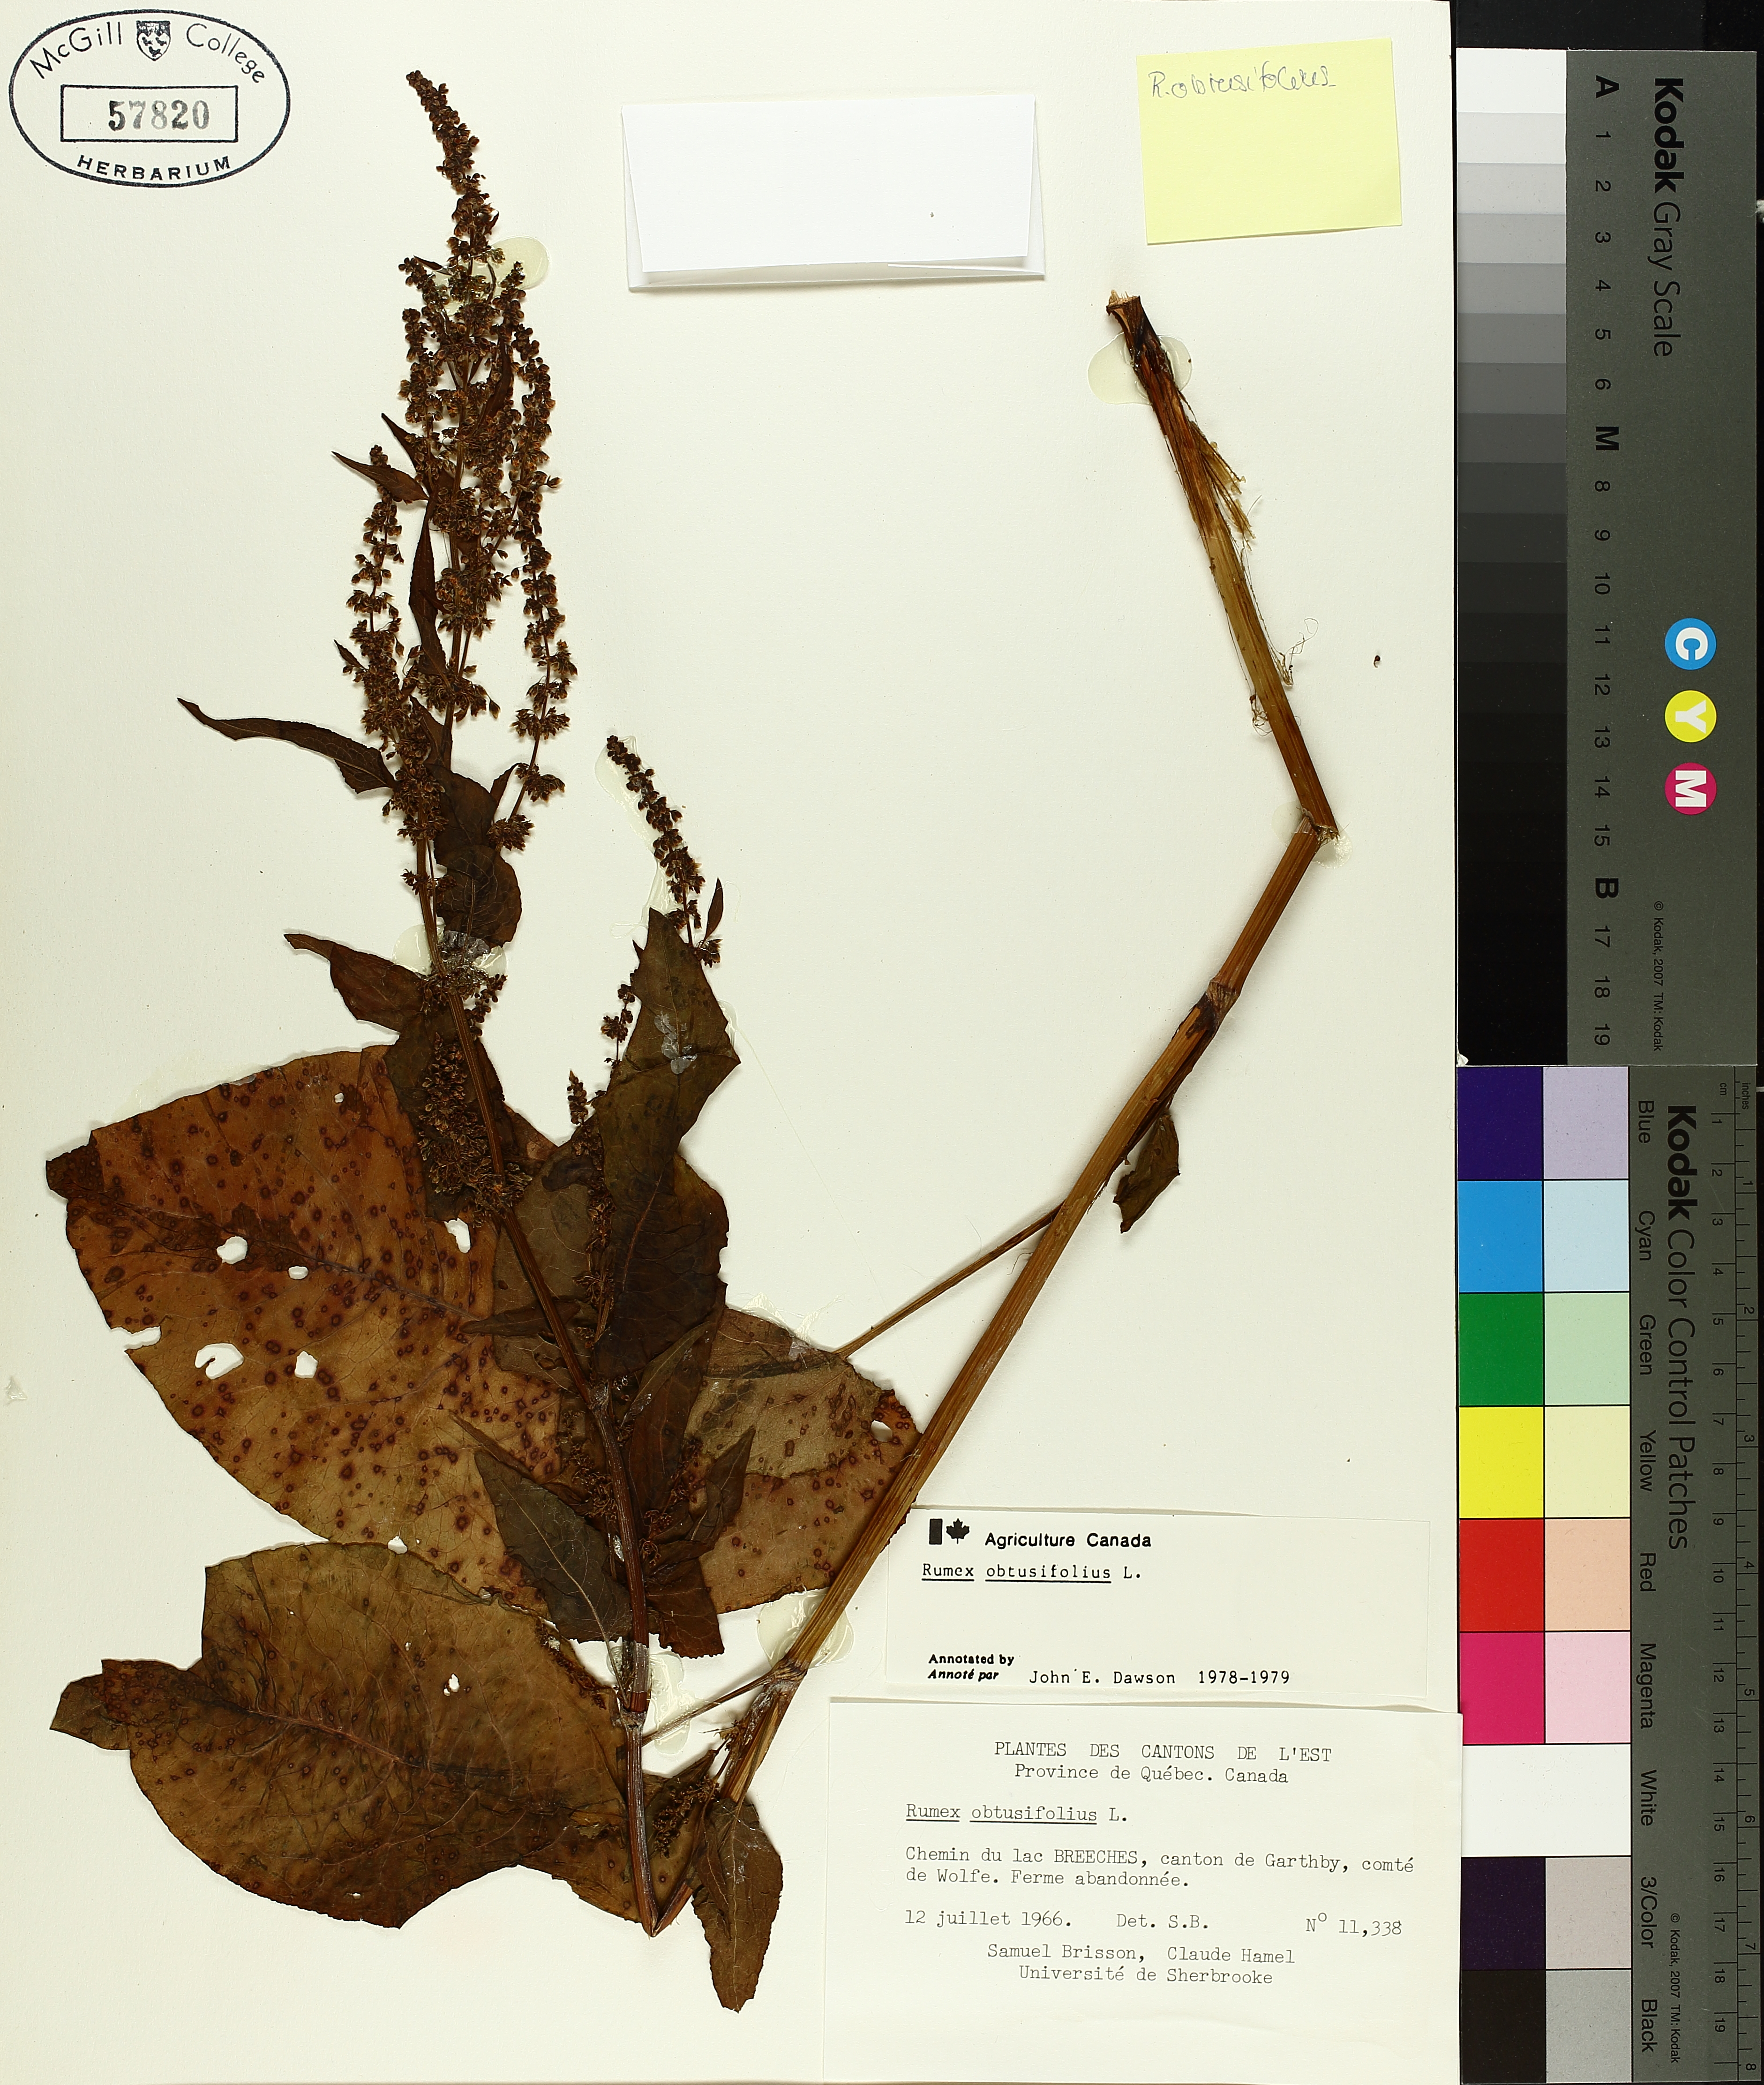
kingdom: Plantae
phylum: Tracheophyta
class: Magnoliopsida
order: Caryophyllales
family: Polygonaceae
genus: Rumex
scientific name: Rumex obtusifolius
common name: Bitter dock
